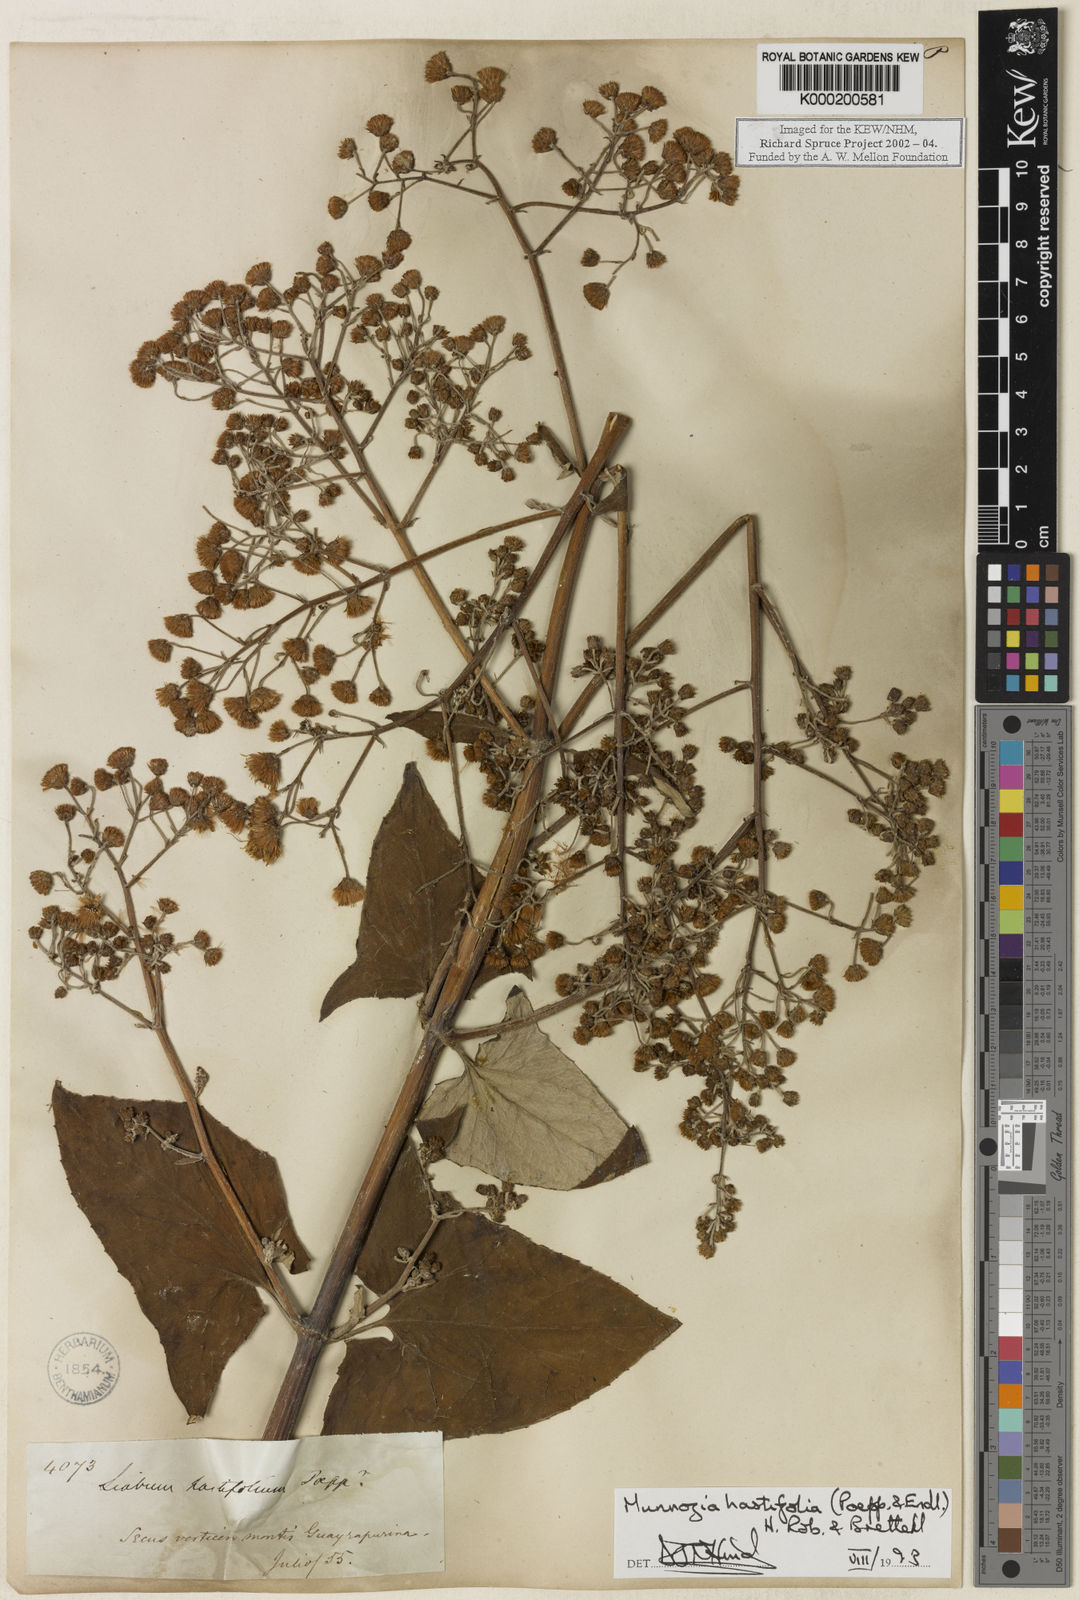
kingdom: Plantae
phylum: Tracheophyta
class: Magnoliopsida
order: Asterales
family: Asteraceae
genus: Munnozia
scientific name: Munnozia hastifolia
